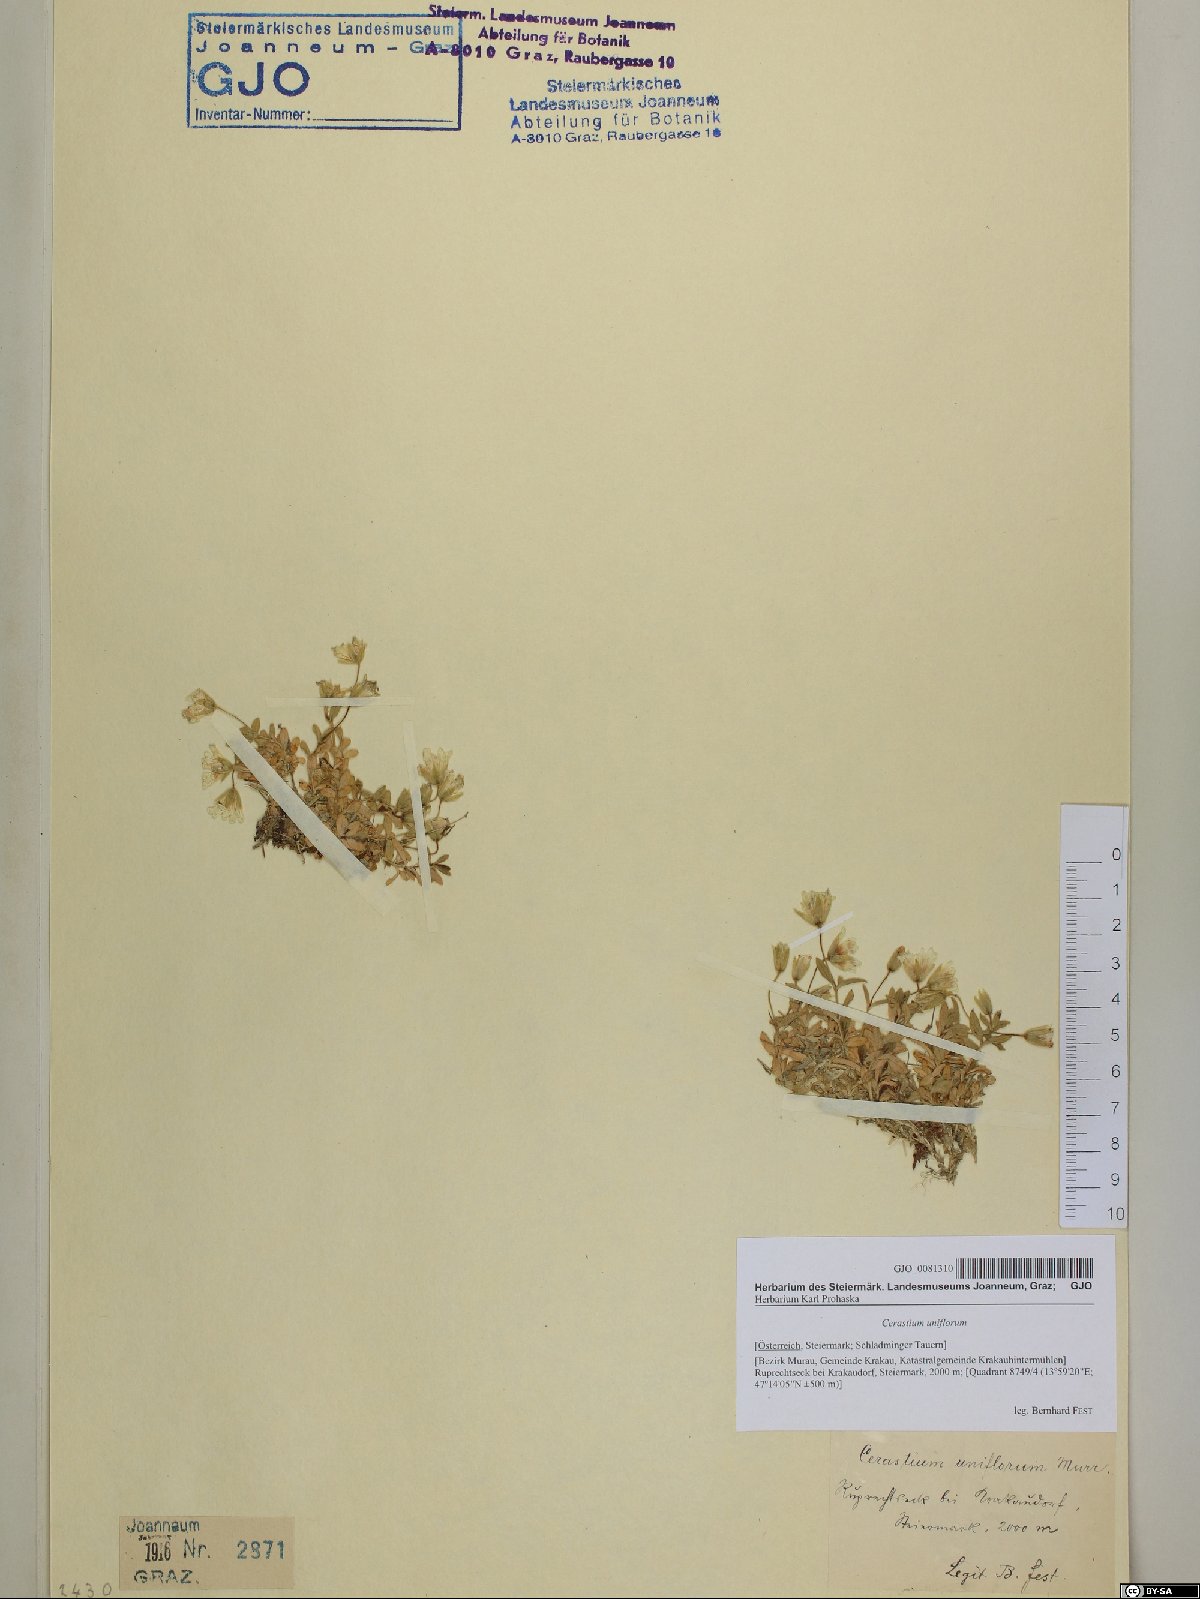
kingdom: Plantae
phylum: Tracheophyta
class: Magnoliopsida
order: Caryophyllales
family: Caryophyllaceae
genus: Cerastium
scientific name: Cerastium uniflorum
